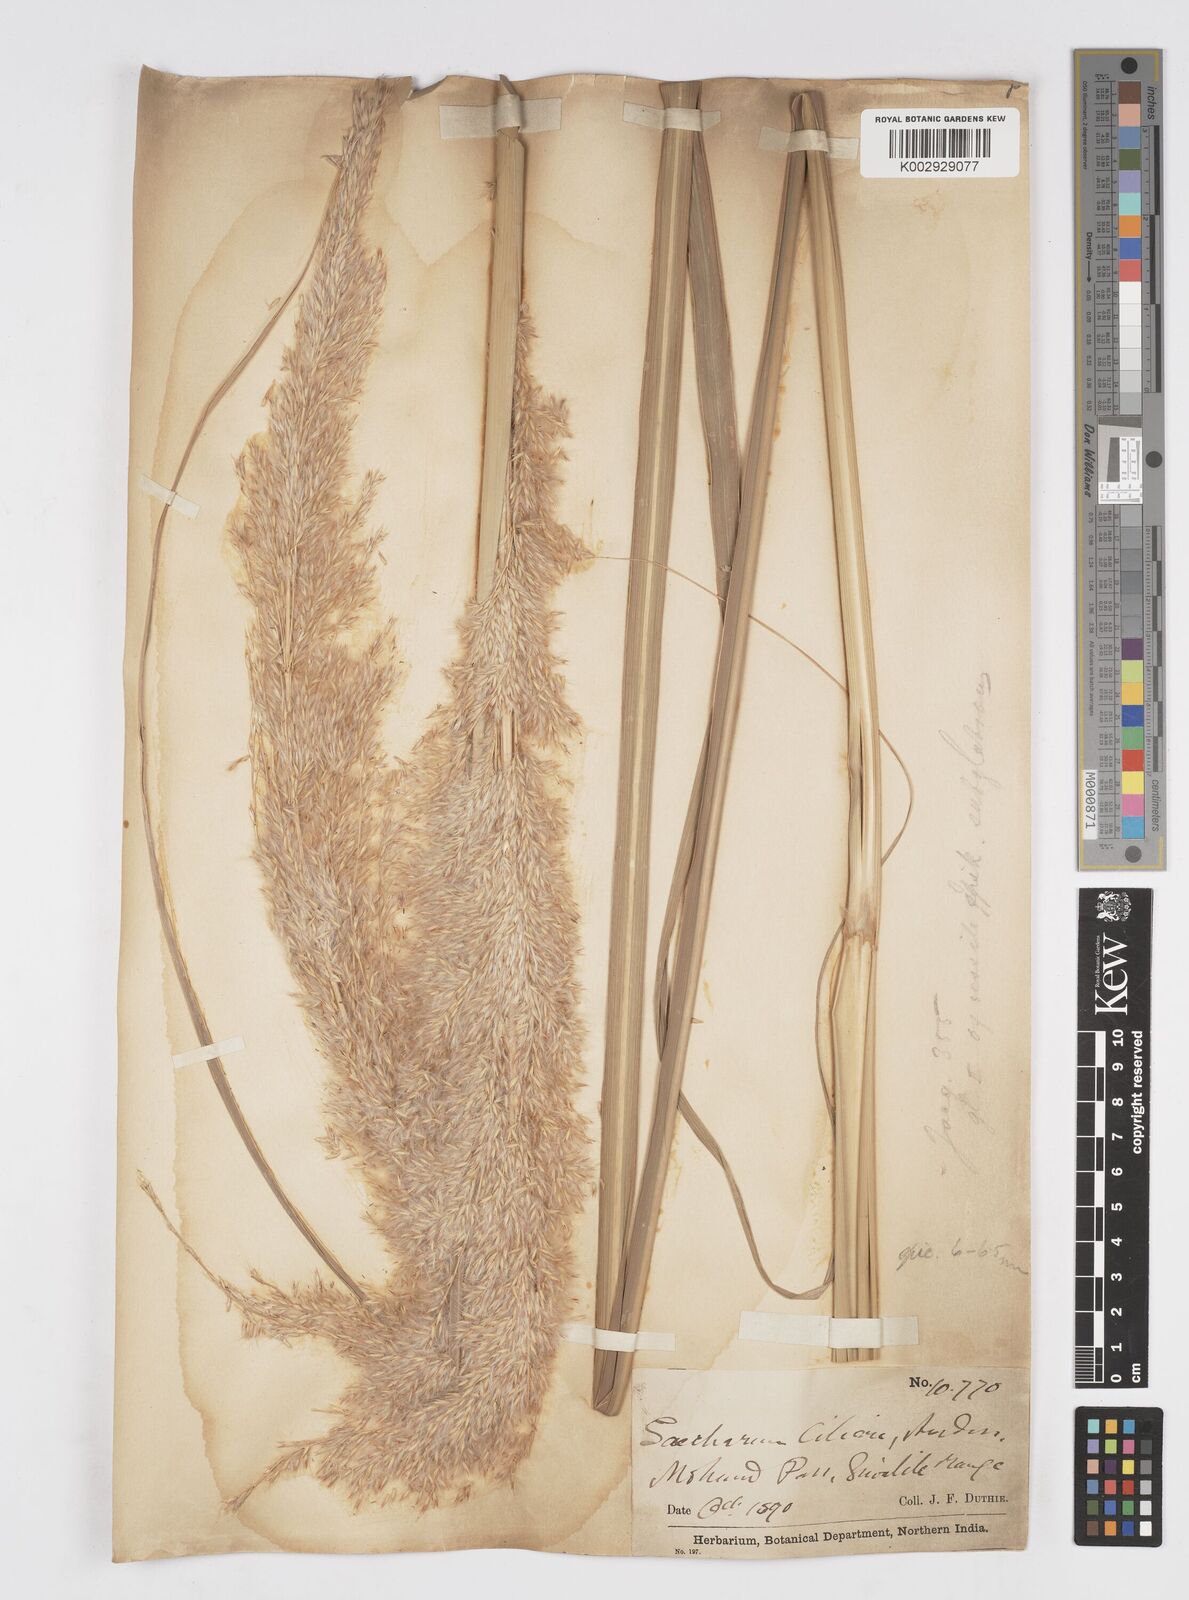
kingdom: Plantae
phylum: Tracheophyta
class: Liliopsida
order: Poales
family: Poaceae
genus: Tripidium
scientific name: Tripidium bengalense
